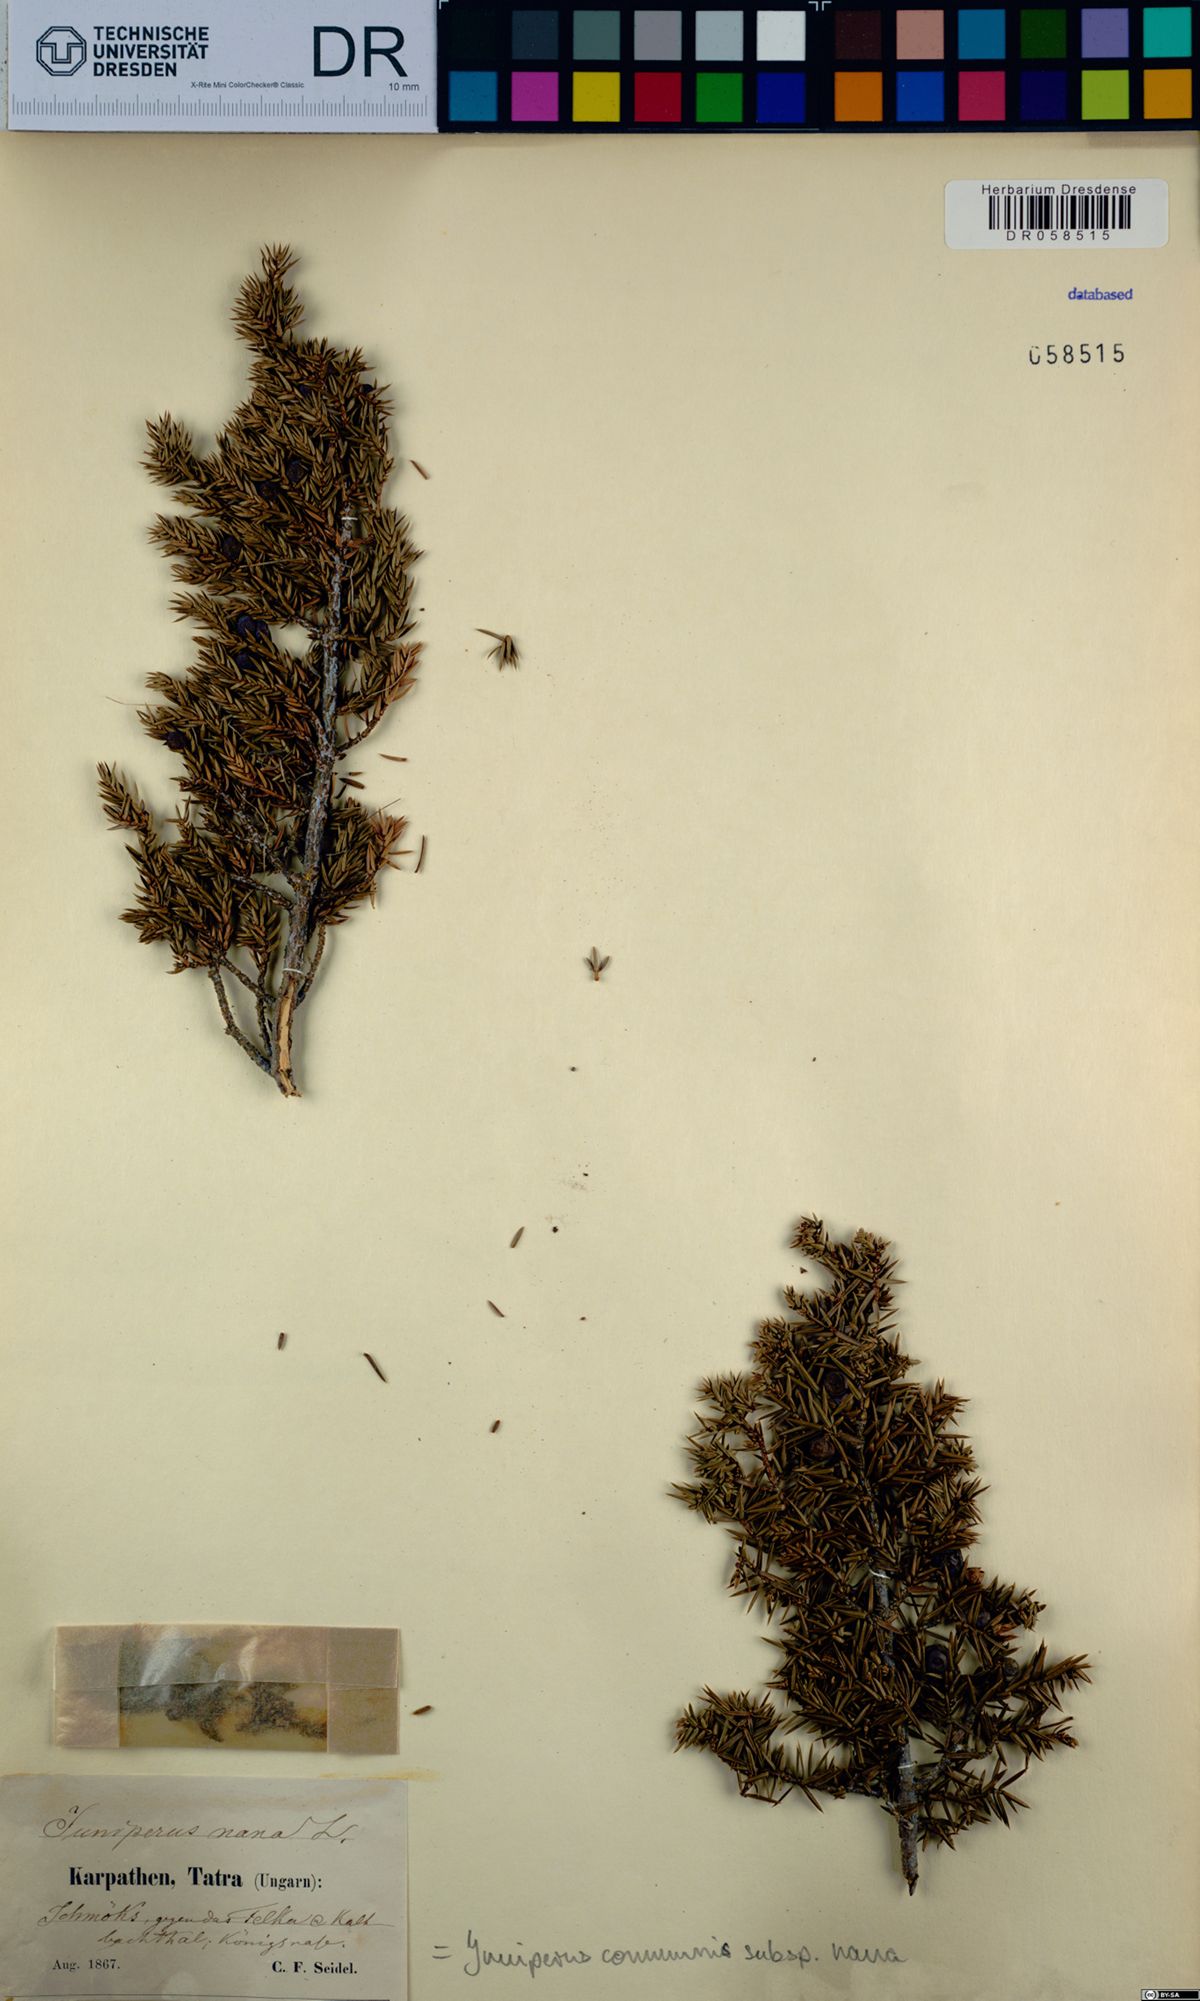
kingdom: Plantae
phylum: Tracheophyta
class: Pinopsida
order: Pinales
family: Cupressaceae
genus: Juniperus
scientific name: Juniperus communis
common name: Common juniper
